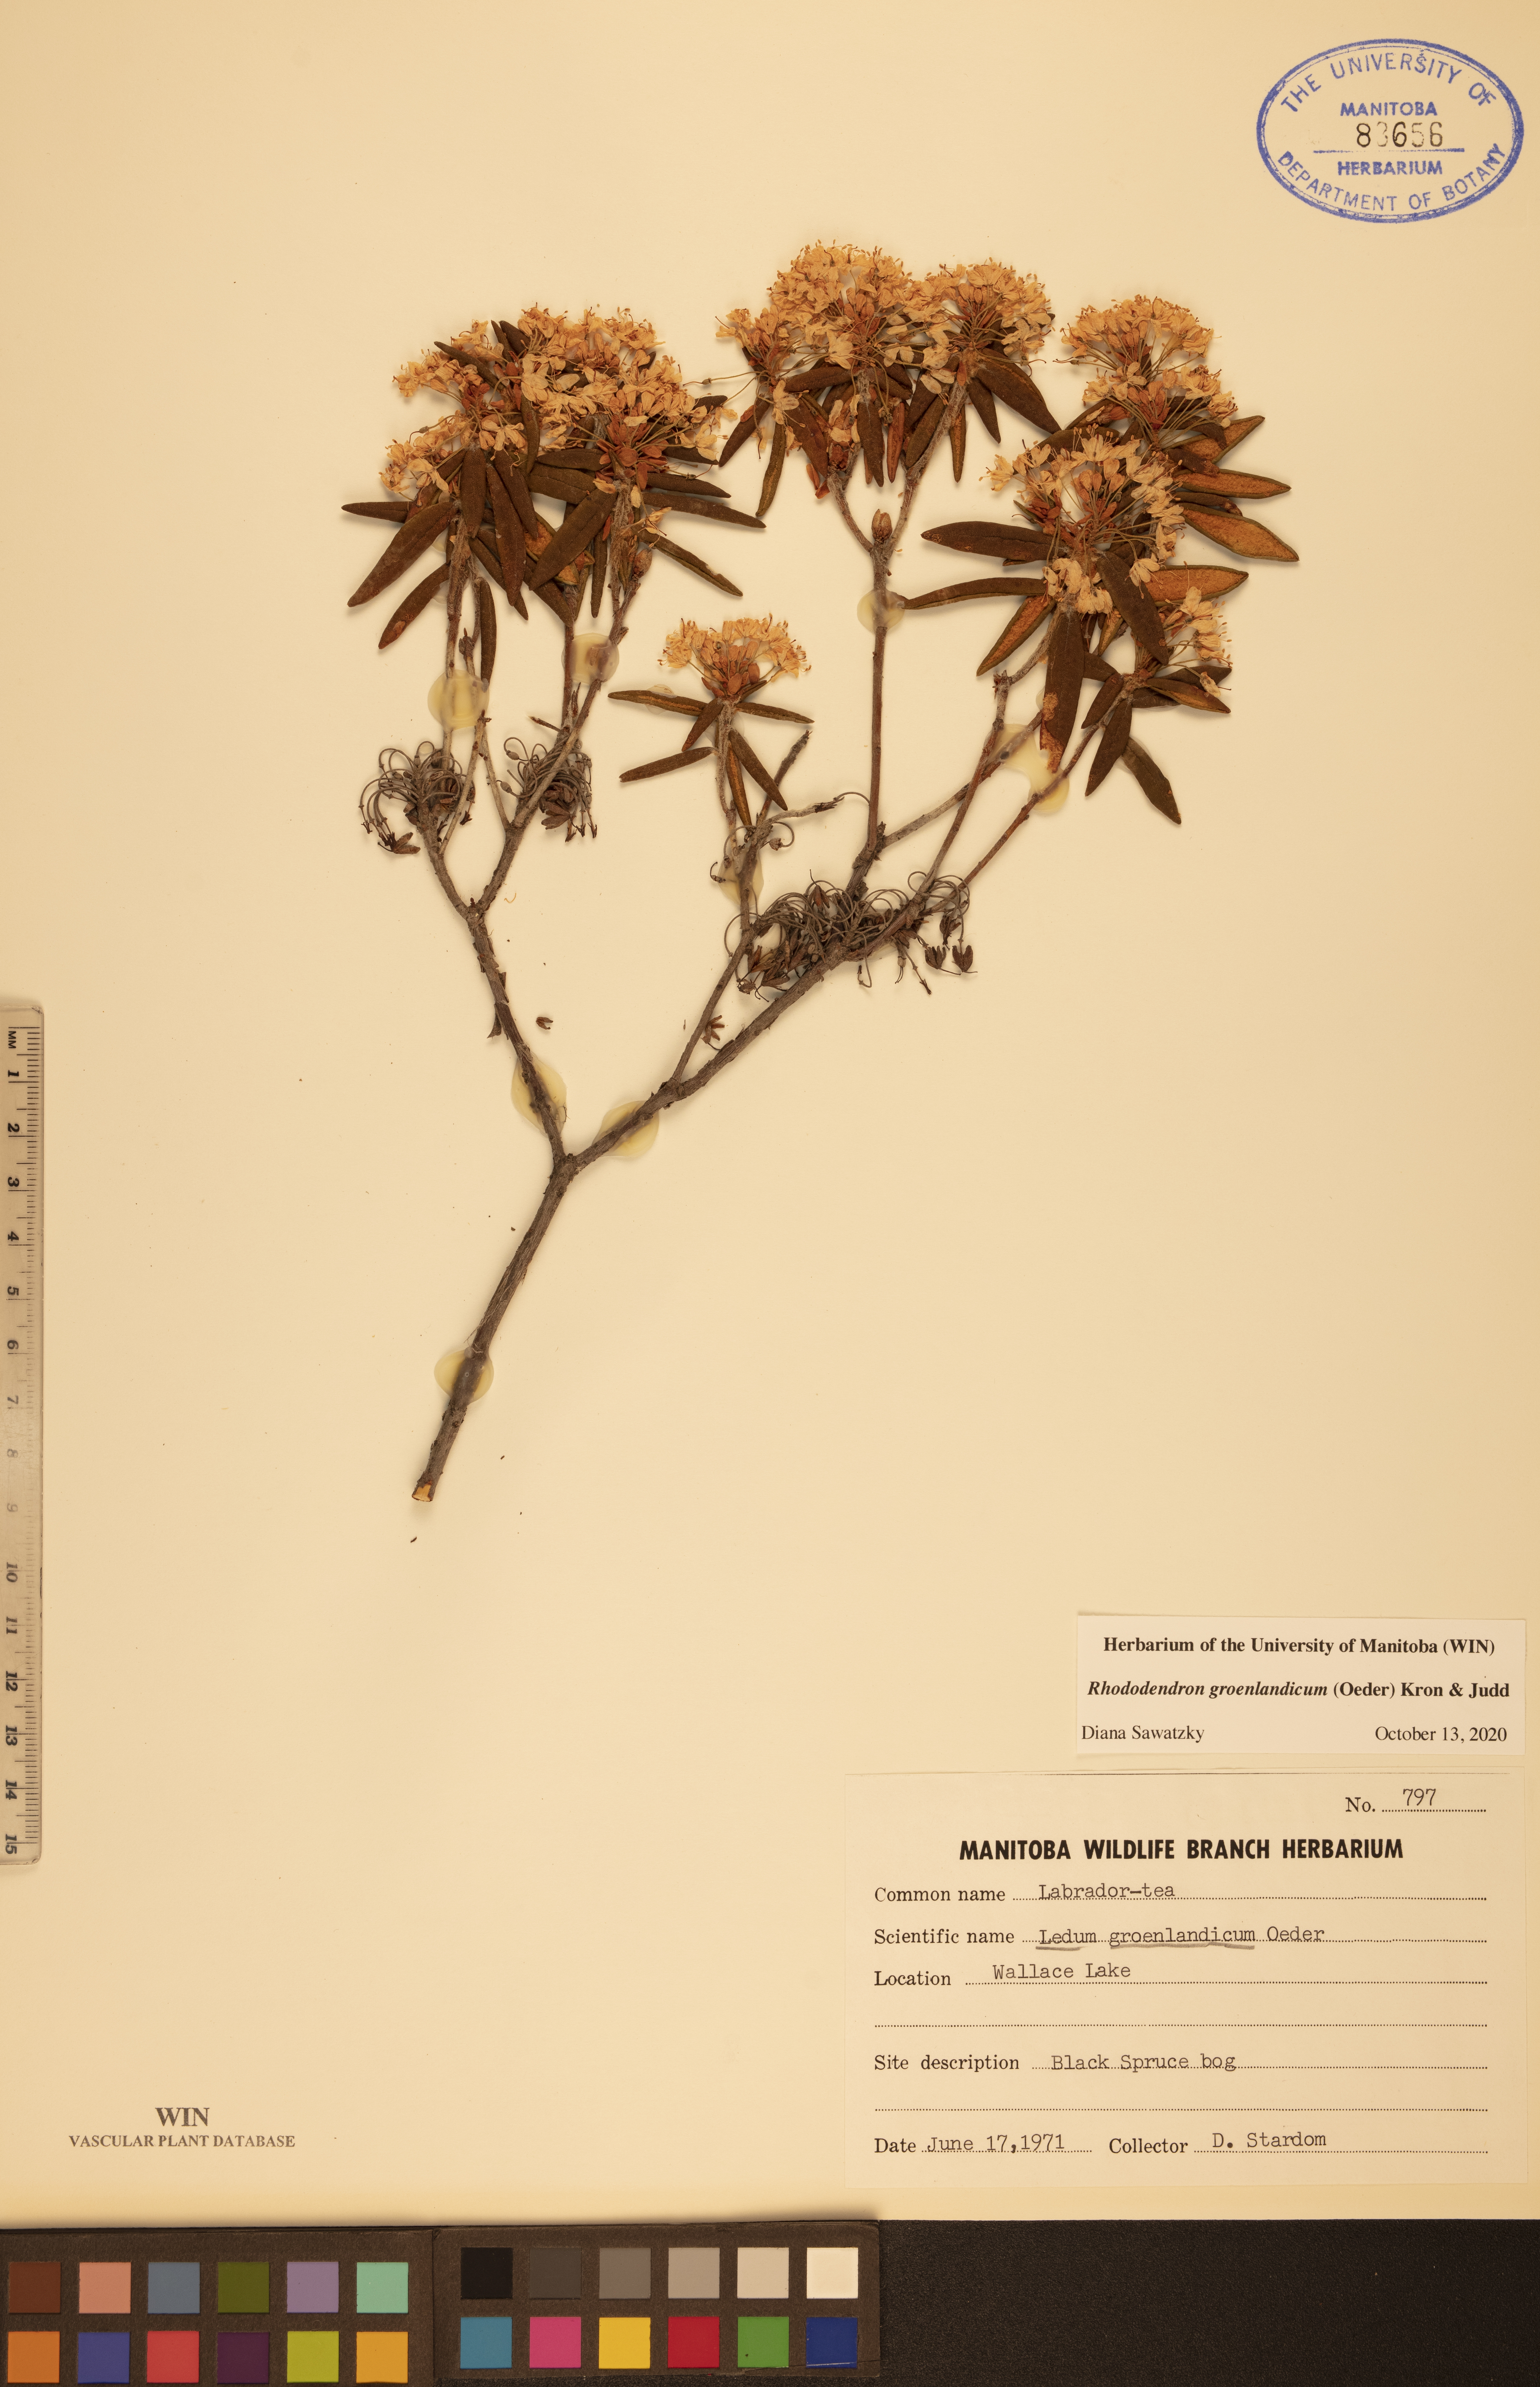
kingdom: Plantae
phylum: Tracheophyta
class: Magnoliopsida
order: Ericales
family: Ericaceae
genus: Rhododendron
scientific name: Rhododendron groenlandicum
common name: Bog labrador tea
